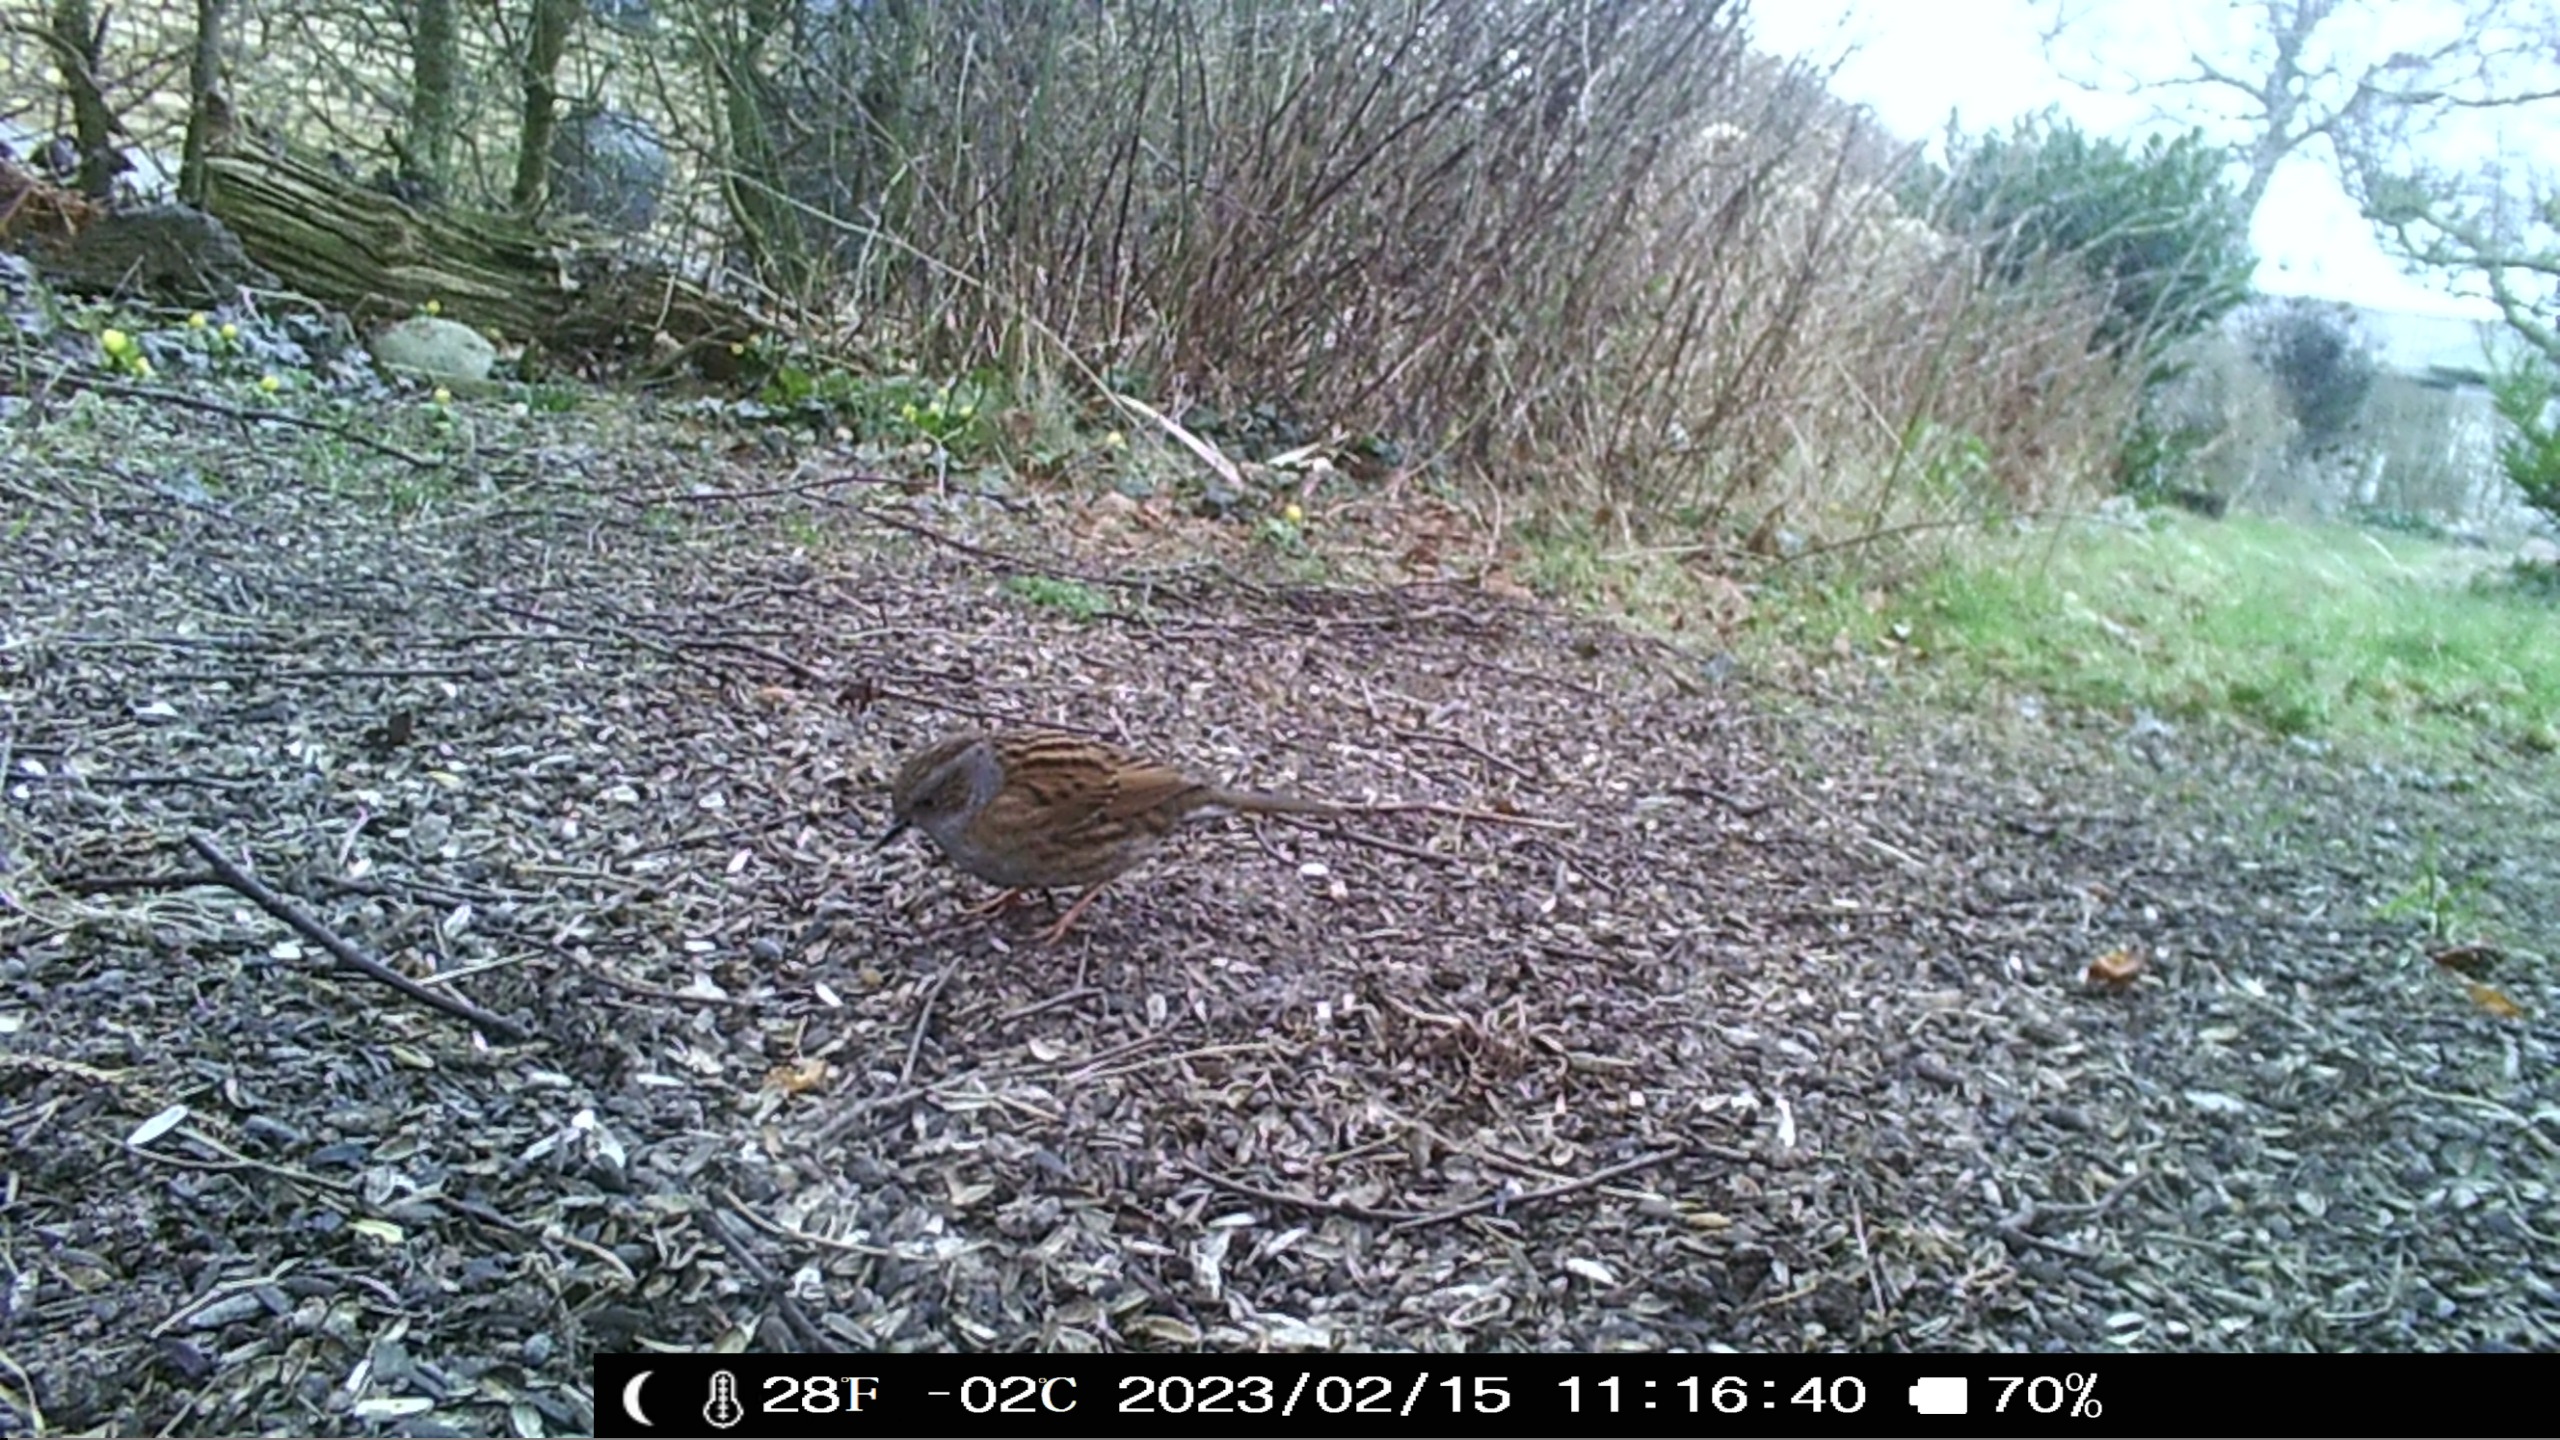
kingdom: Animalia
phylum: Chordata
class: Aves
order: Passeriformes
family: Prunellidae
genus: Prunella
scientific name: Prunella modularis
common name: Jernspurv
